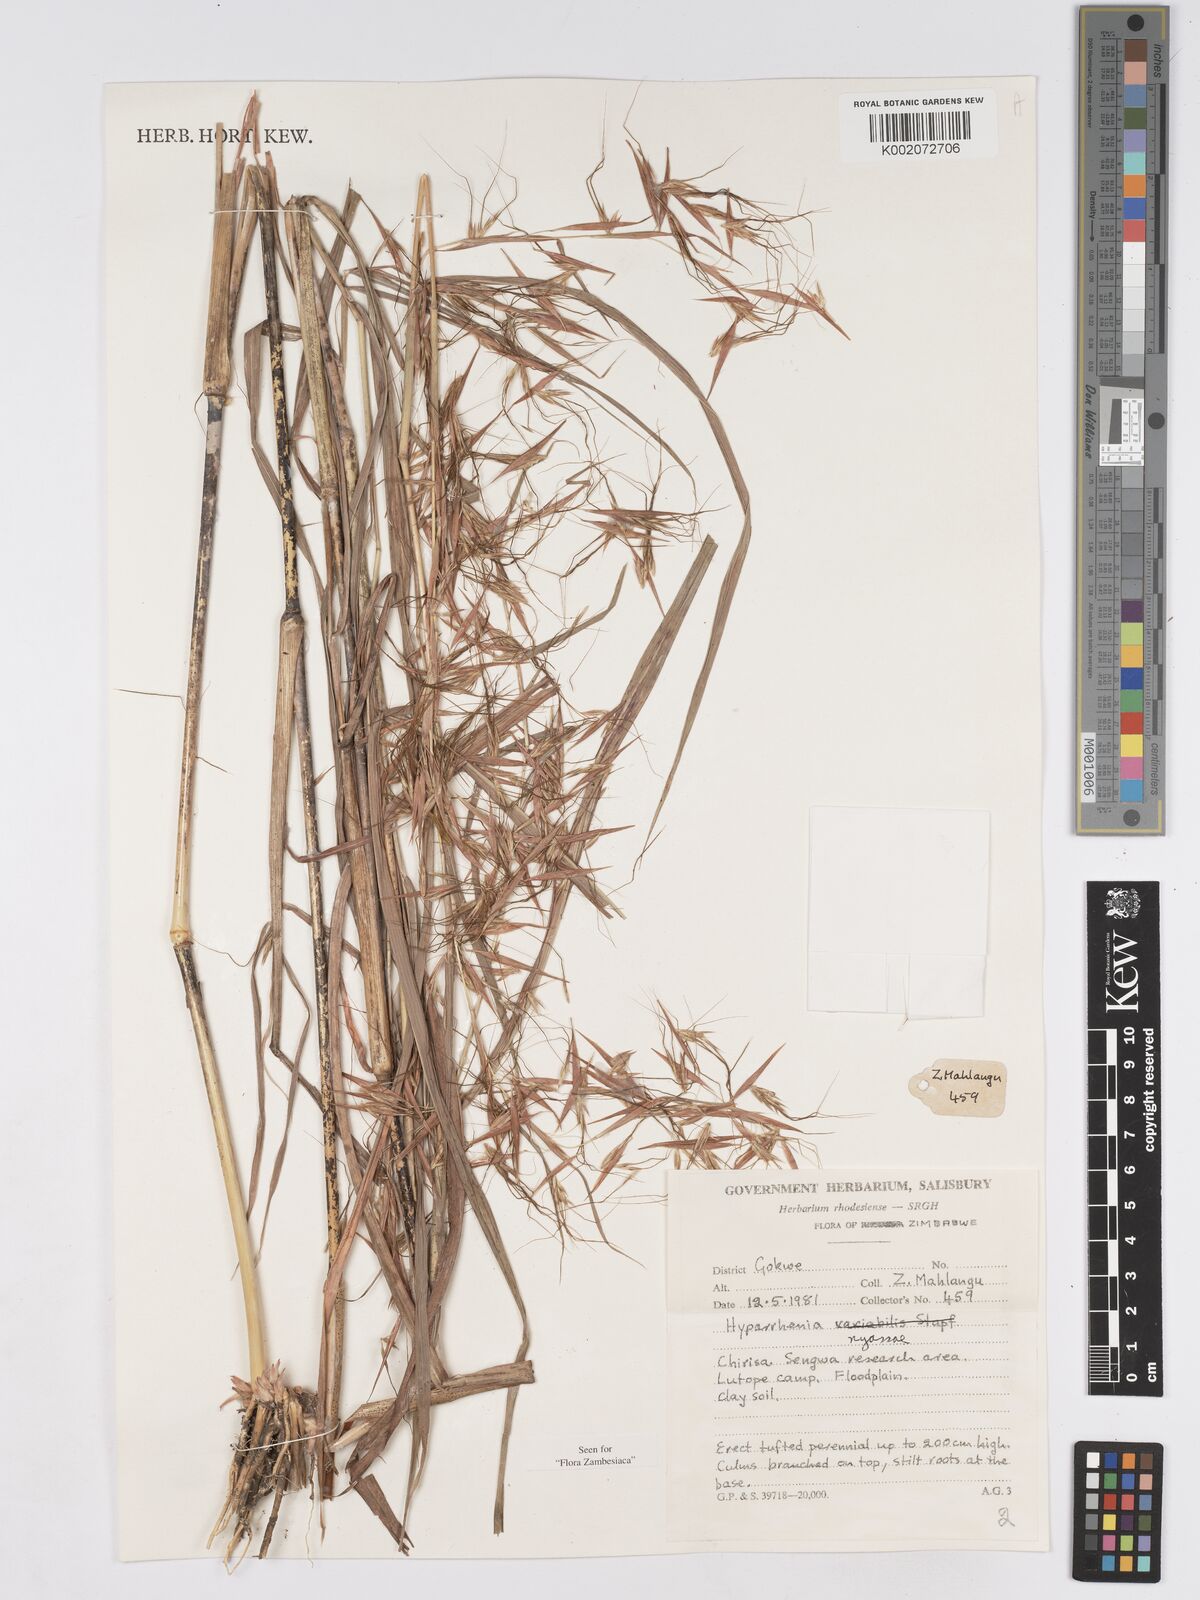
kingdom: Plantae
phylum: Tracheophyta
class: Liliopsida
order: Poales
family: Poaceae
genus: Hyparrhenia
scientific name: Hyparrhenia nyassae
